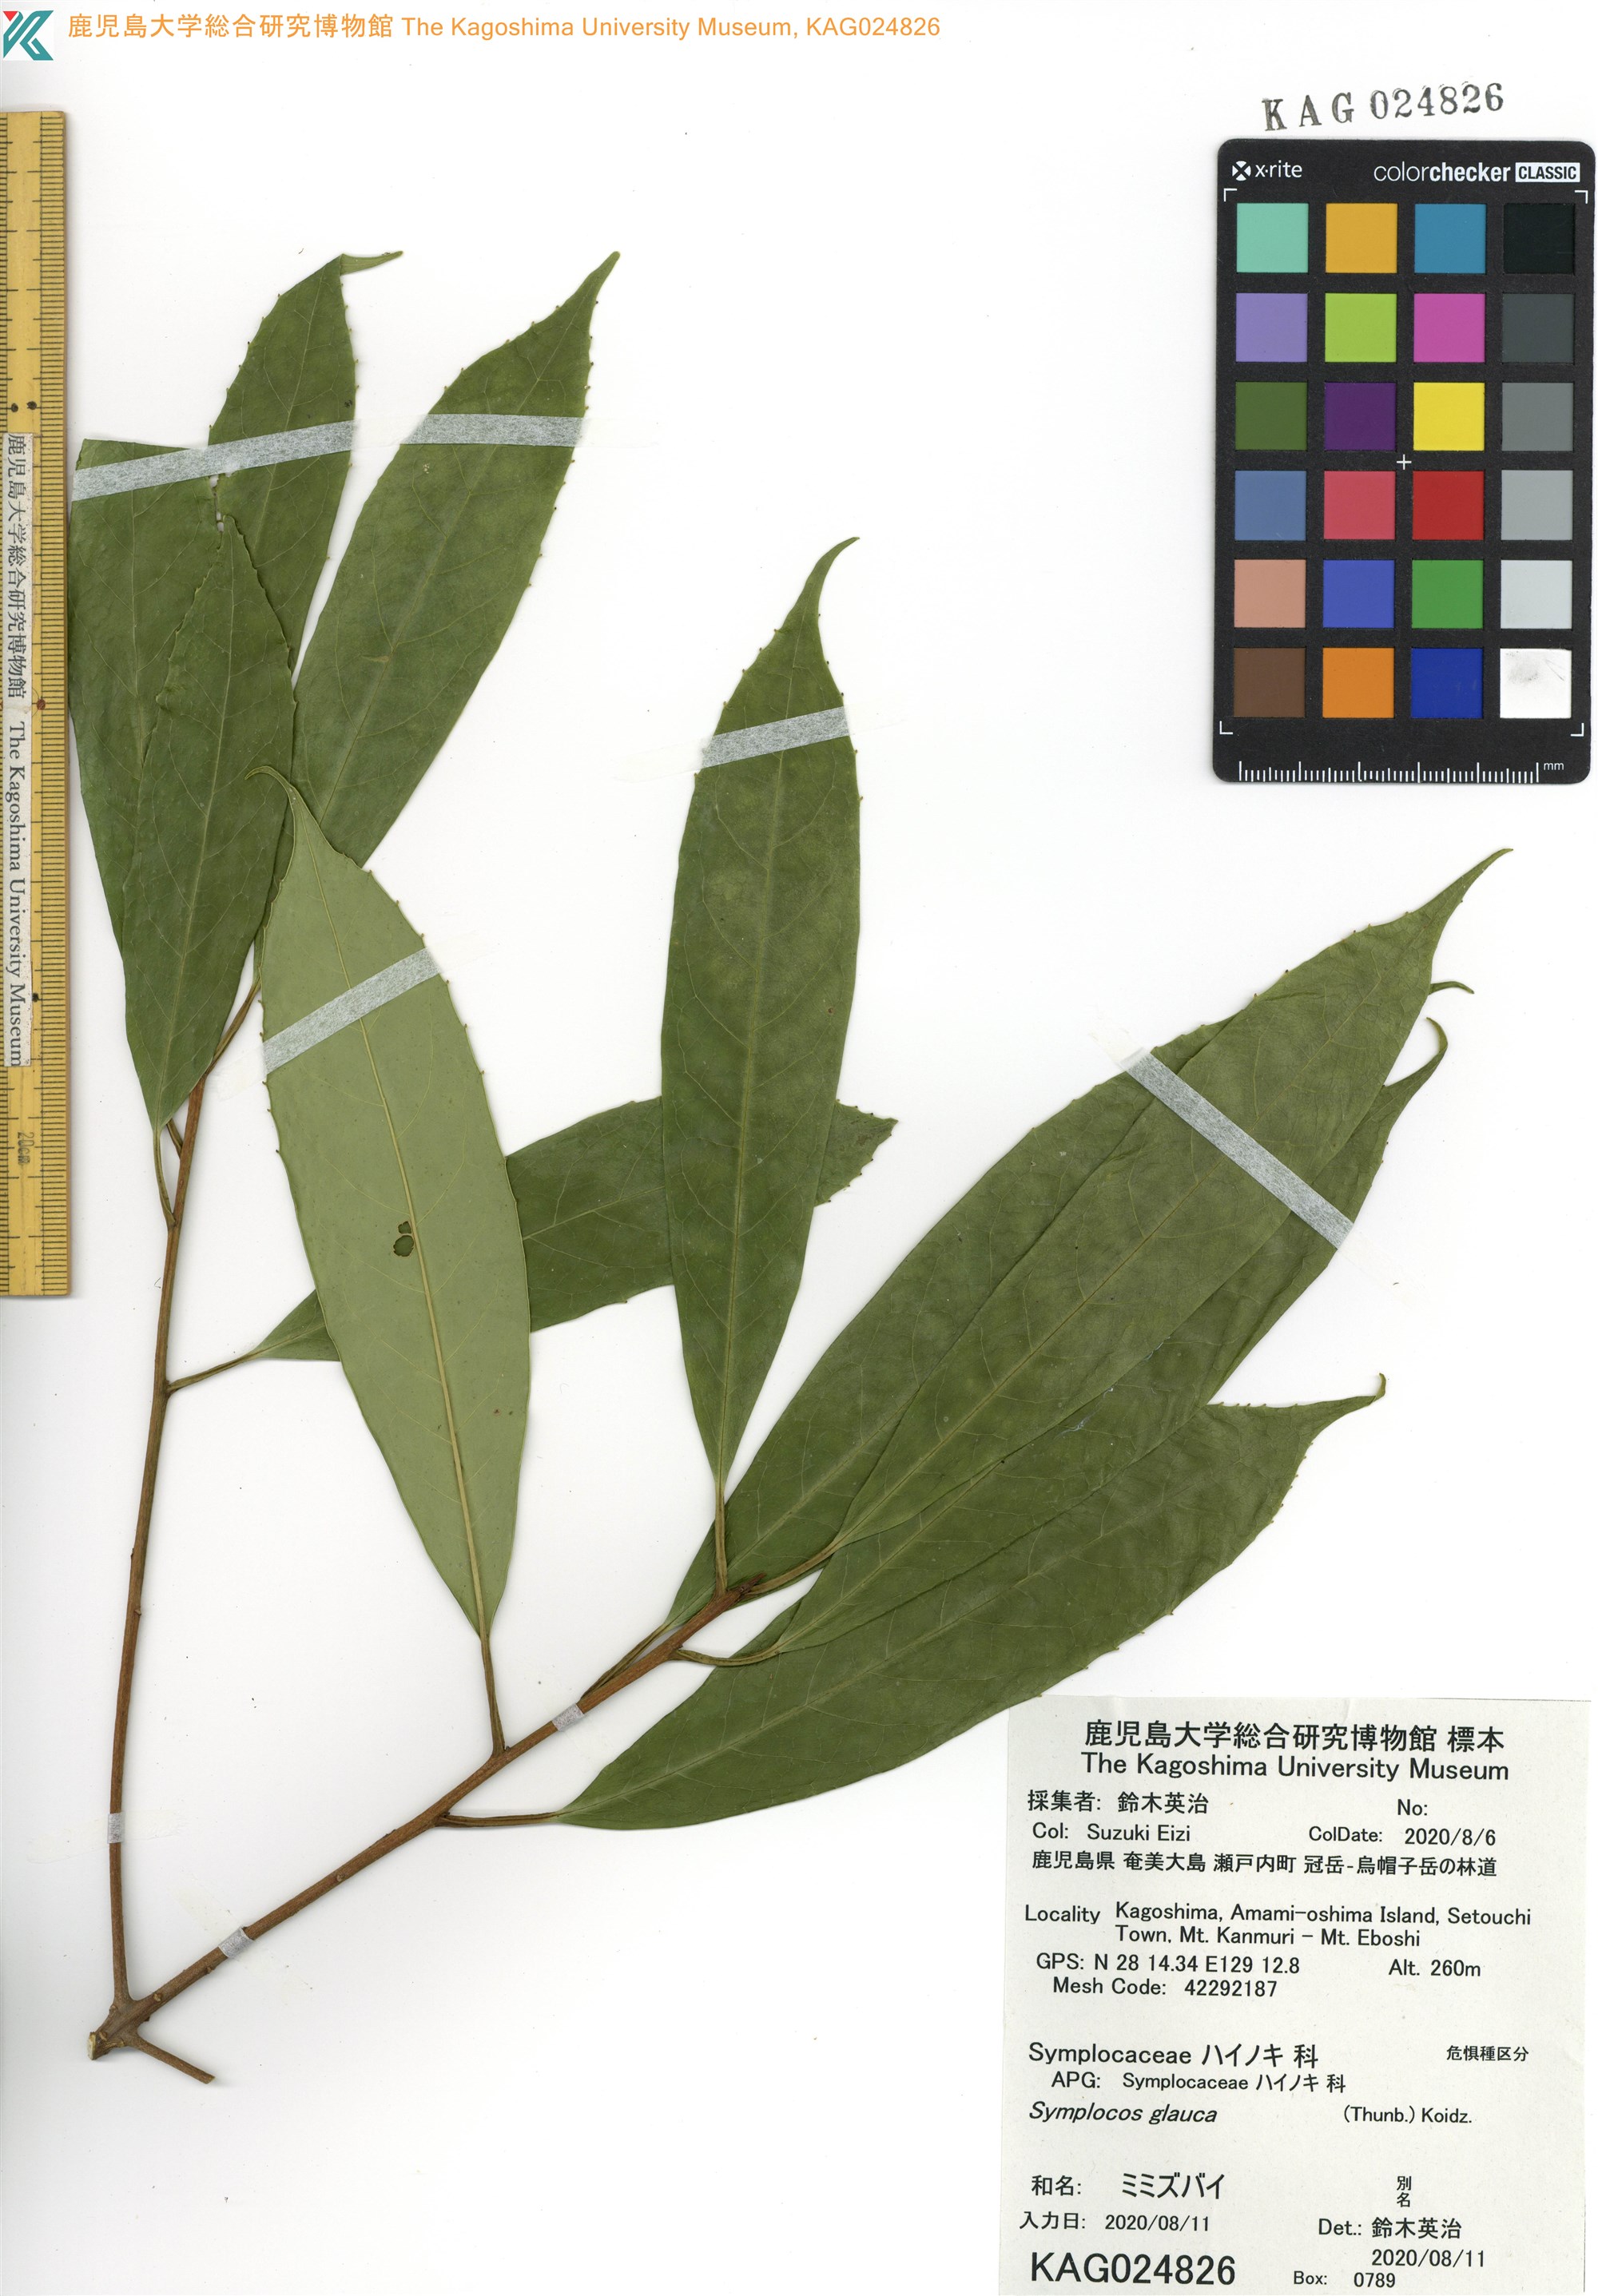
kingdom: Plantae
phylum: Tracheophyta
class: Magnoliopsida
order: Ericales
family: Symplocaceae
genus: Symplocos
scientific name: Symplocos glauca
